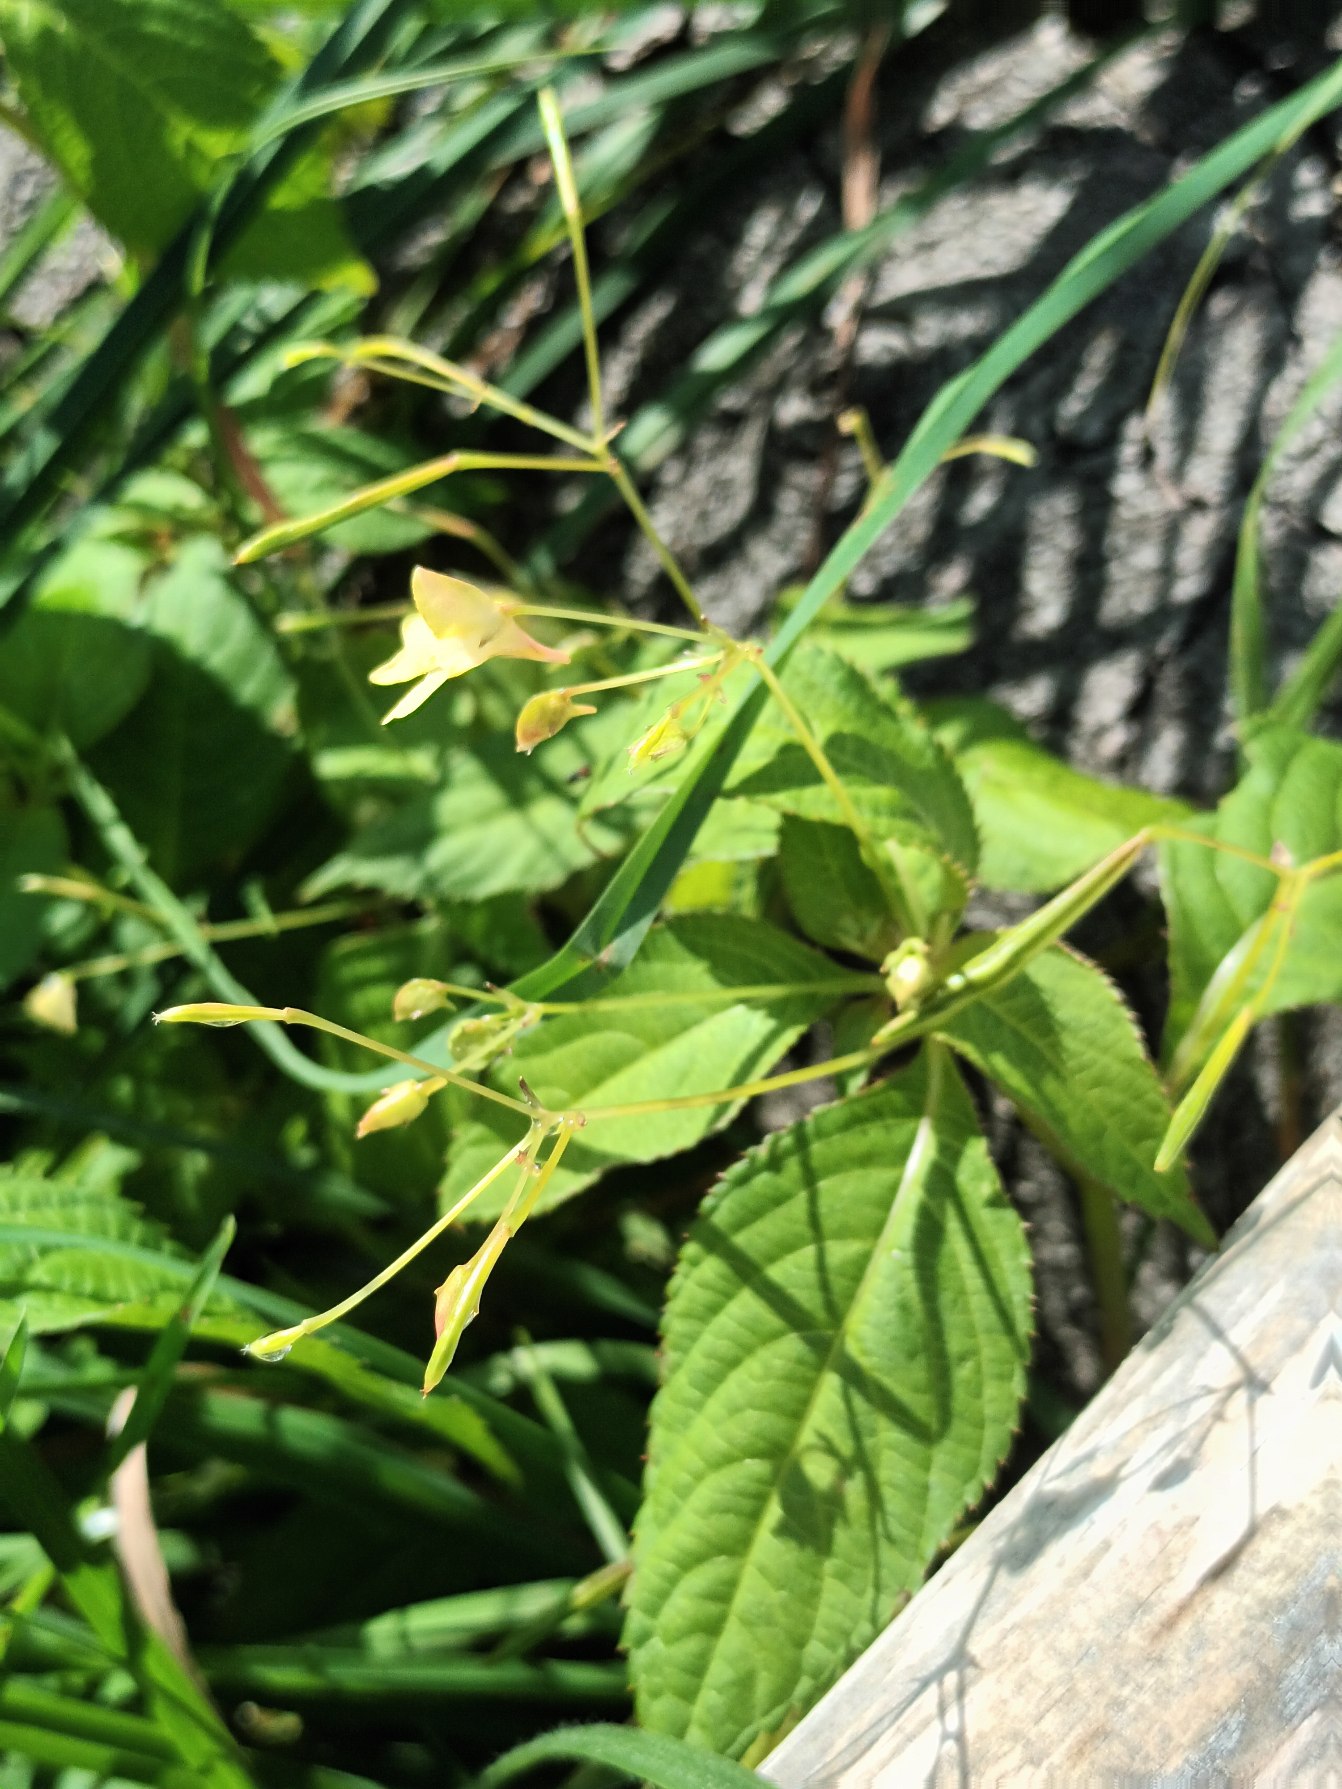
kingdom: Plantae
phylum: Tracheophyta
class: Magnoliopsida
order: Ericales
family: Balsaminaceae
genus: Impatiens
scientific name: Impatiens parviflora
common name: Småblomstret balsamin
